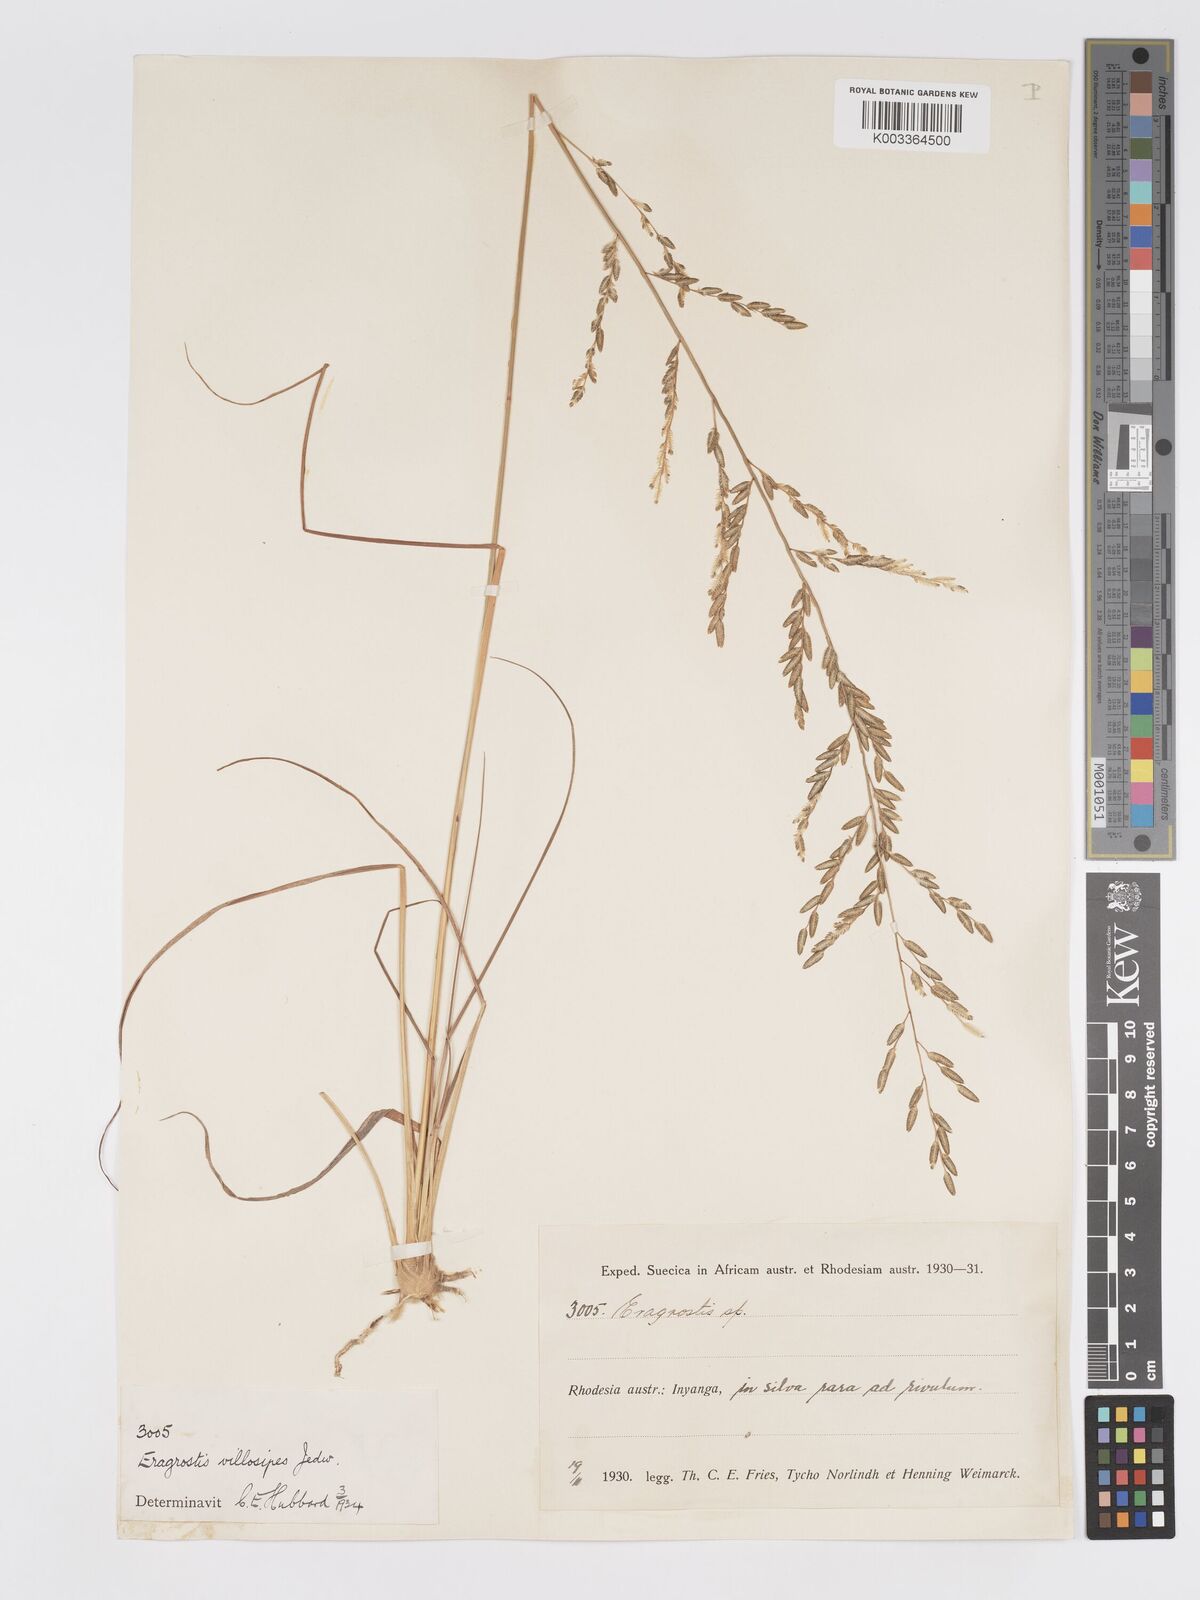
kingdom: Plantae
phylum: Tracheophyta
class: Liliopsida
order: Poales
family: Poaceae
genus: Eragrostis
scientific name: Eragrostis sclerantha
